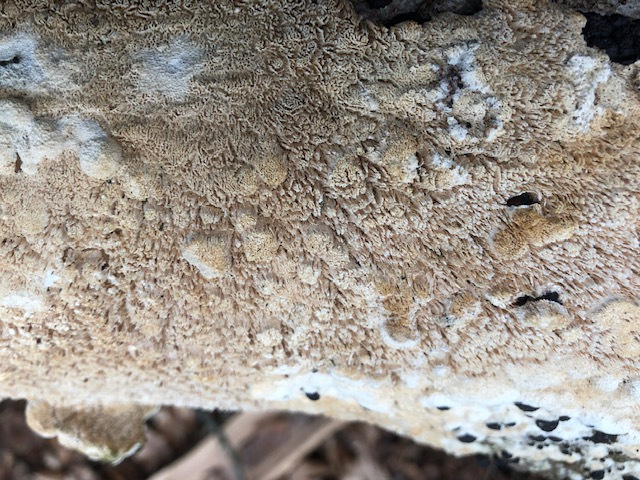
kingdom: Fungi
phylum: Basidiomycota
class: Agaricomycetes
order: Hymenochaetales
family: Schizoporaceae
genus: Schizopora
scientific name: Schizopora paradoxa
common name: hvid tandsvamp
